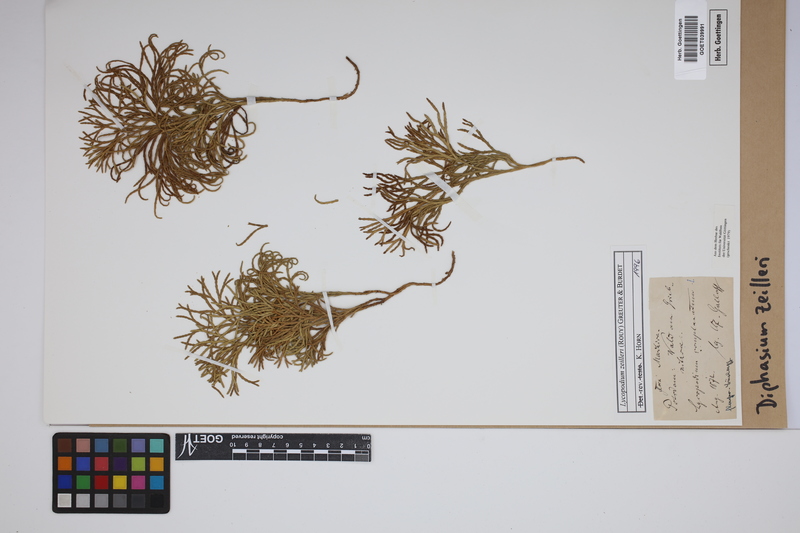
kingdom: Plantae
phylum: Tracheophyta
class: Lycopodiopsida
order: Lycopodiales
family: Lycopodiaceae
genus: Diphasiastrum
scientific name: Diphasiastrum zeilleri
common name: Zeiller's clubmoss
